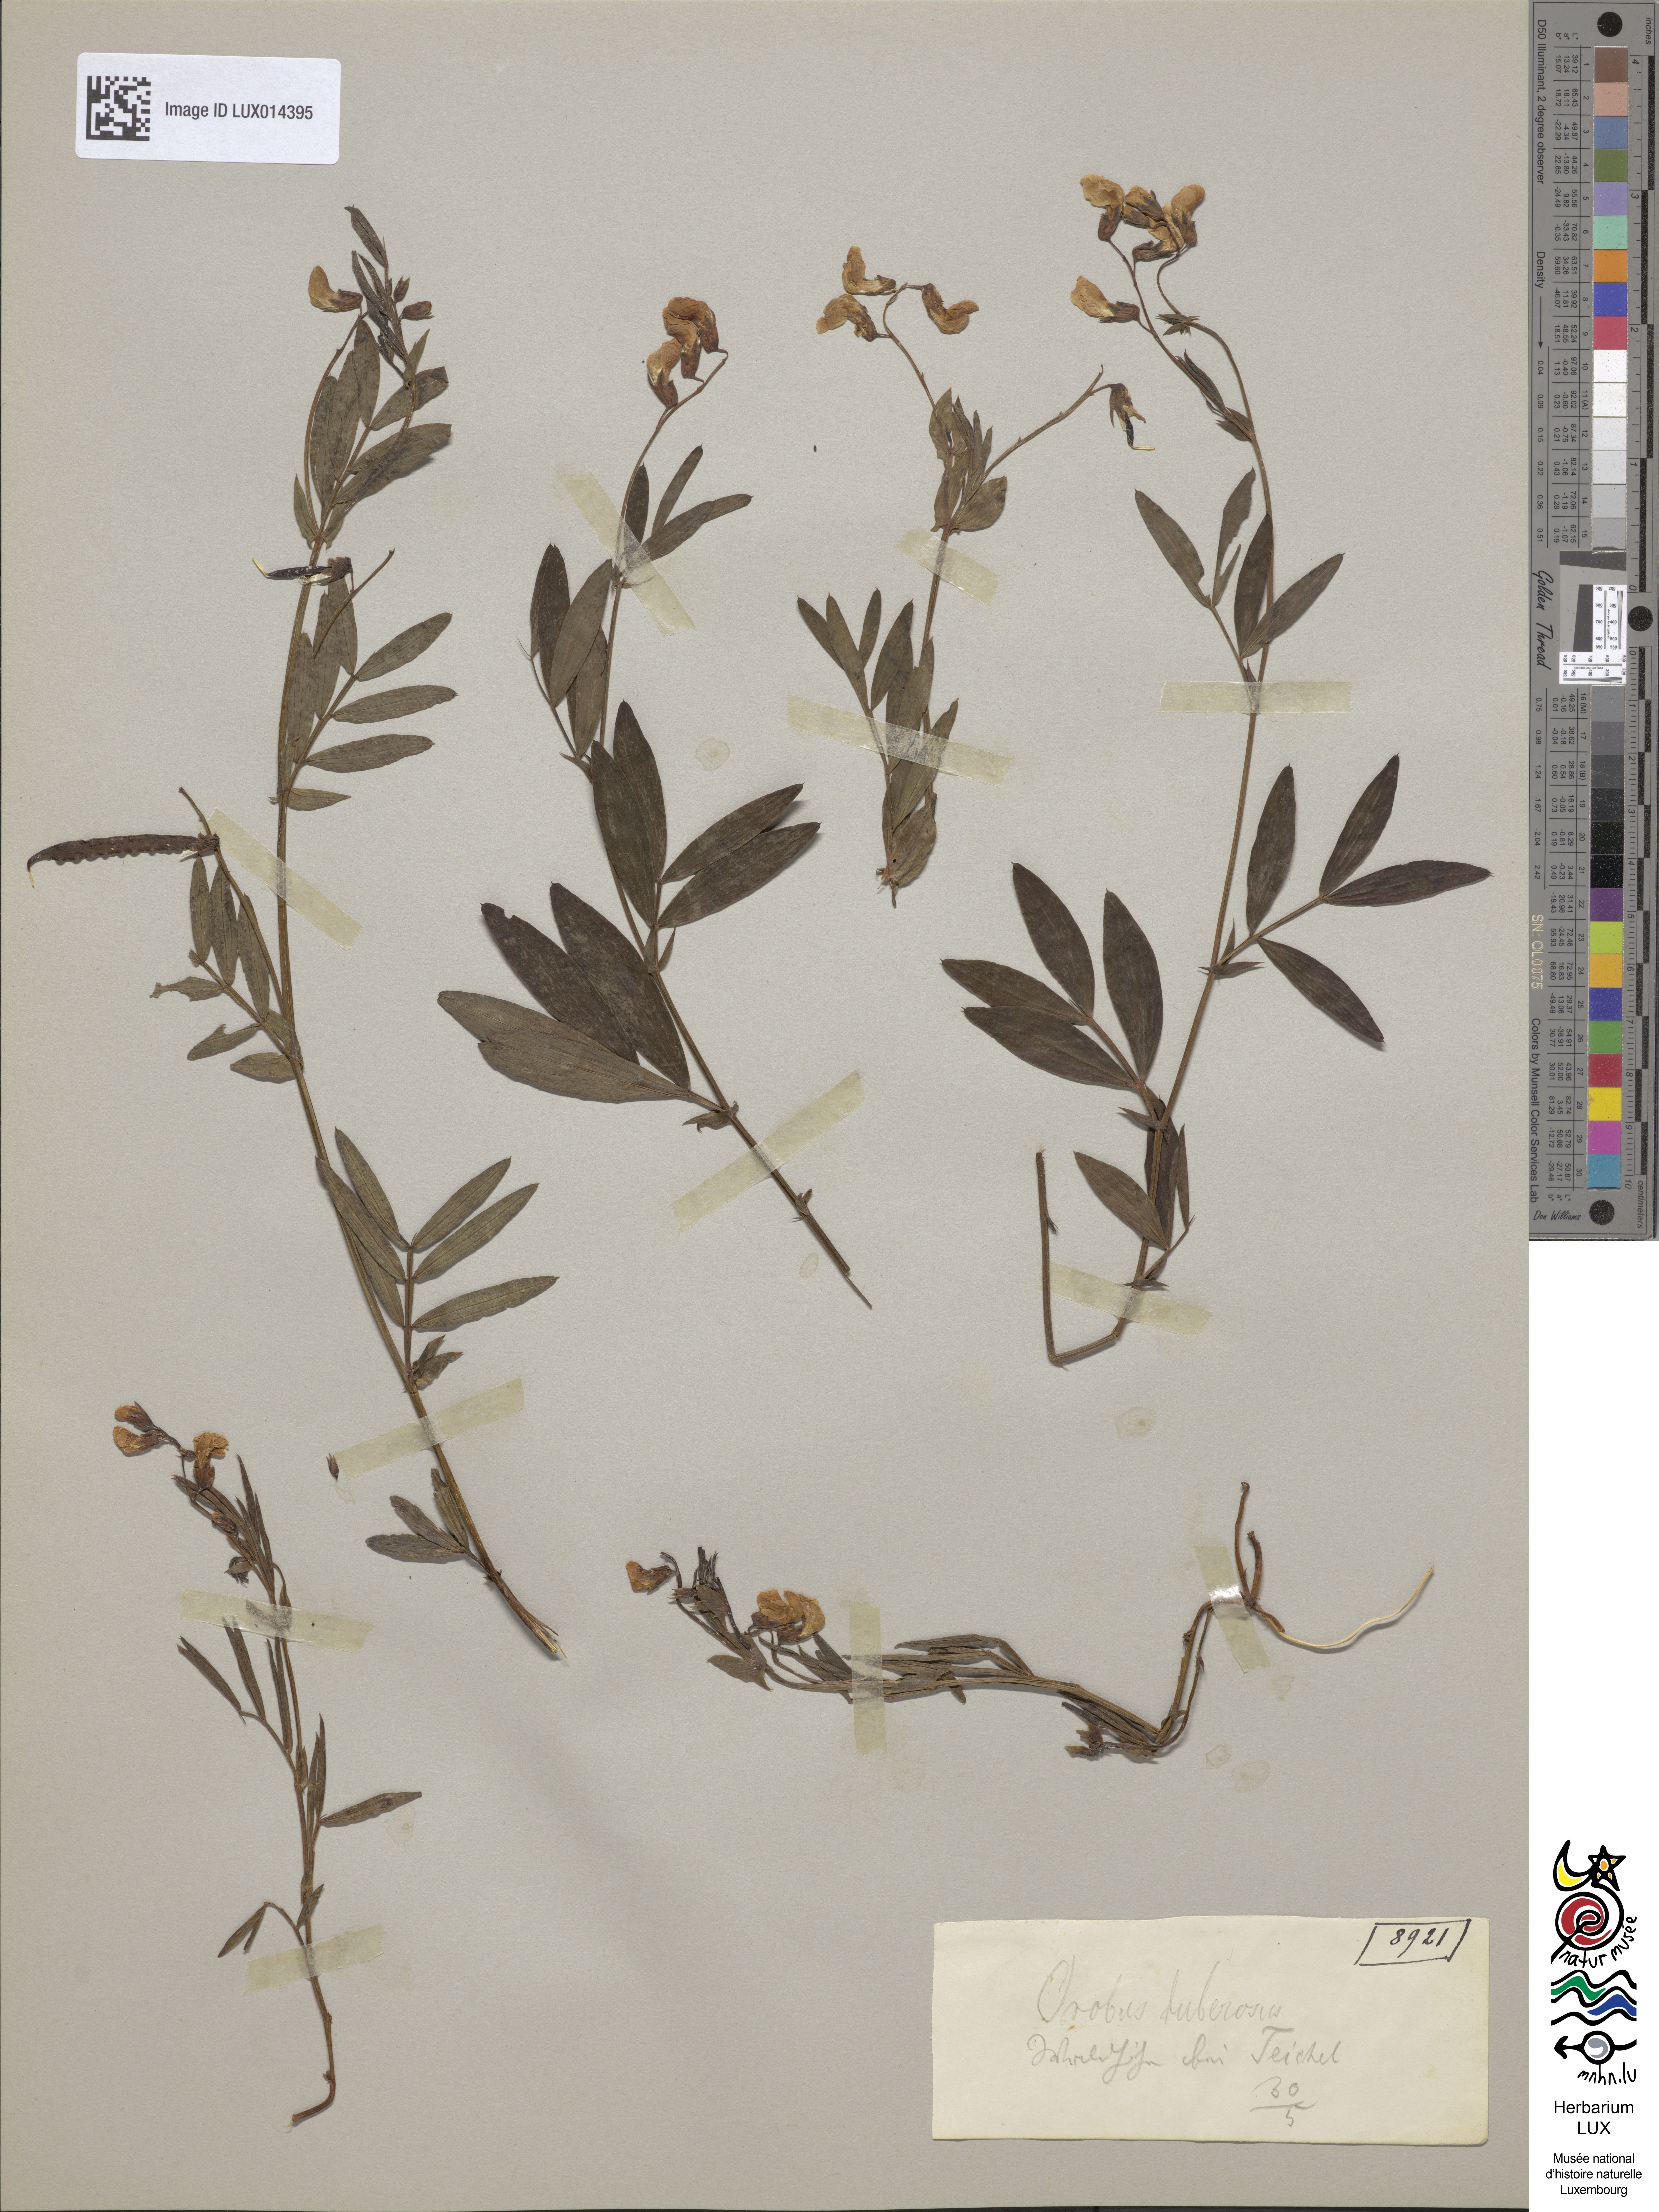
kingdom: Plantae
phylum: Tracheophyta
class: Magnoliopsida
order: Fabales
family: Fabaceae
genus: Lathyrus
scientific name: Lathyrus linifolius
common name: Bitter-vetch
